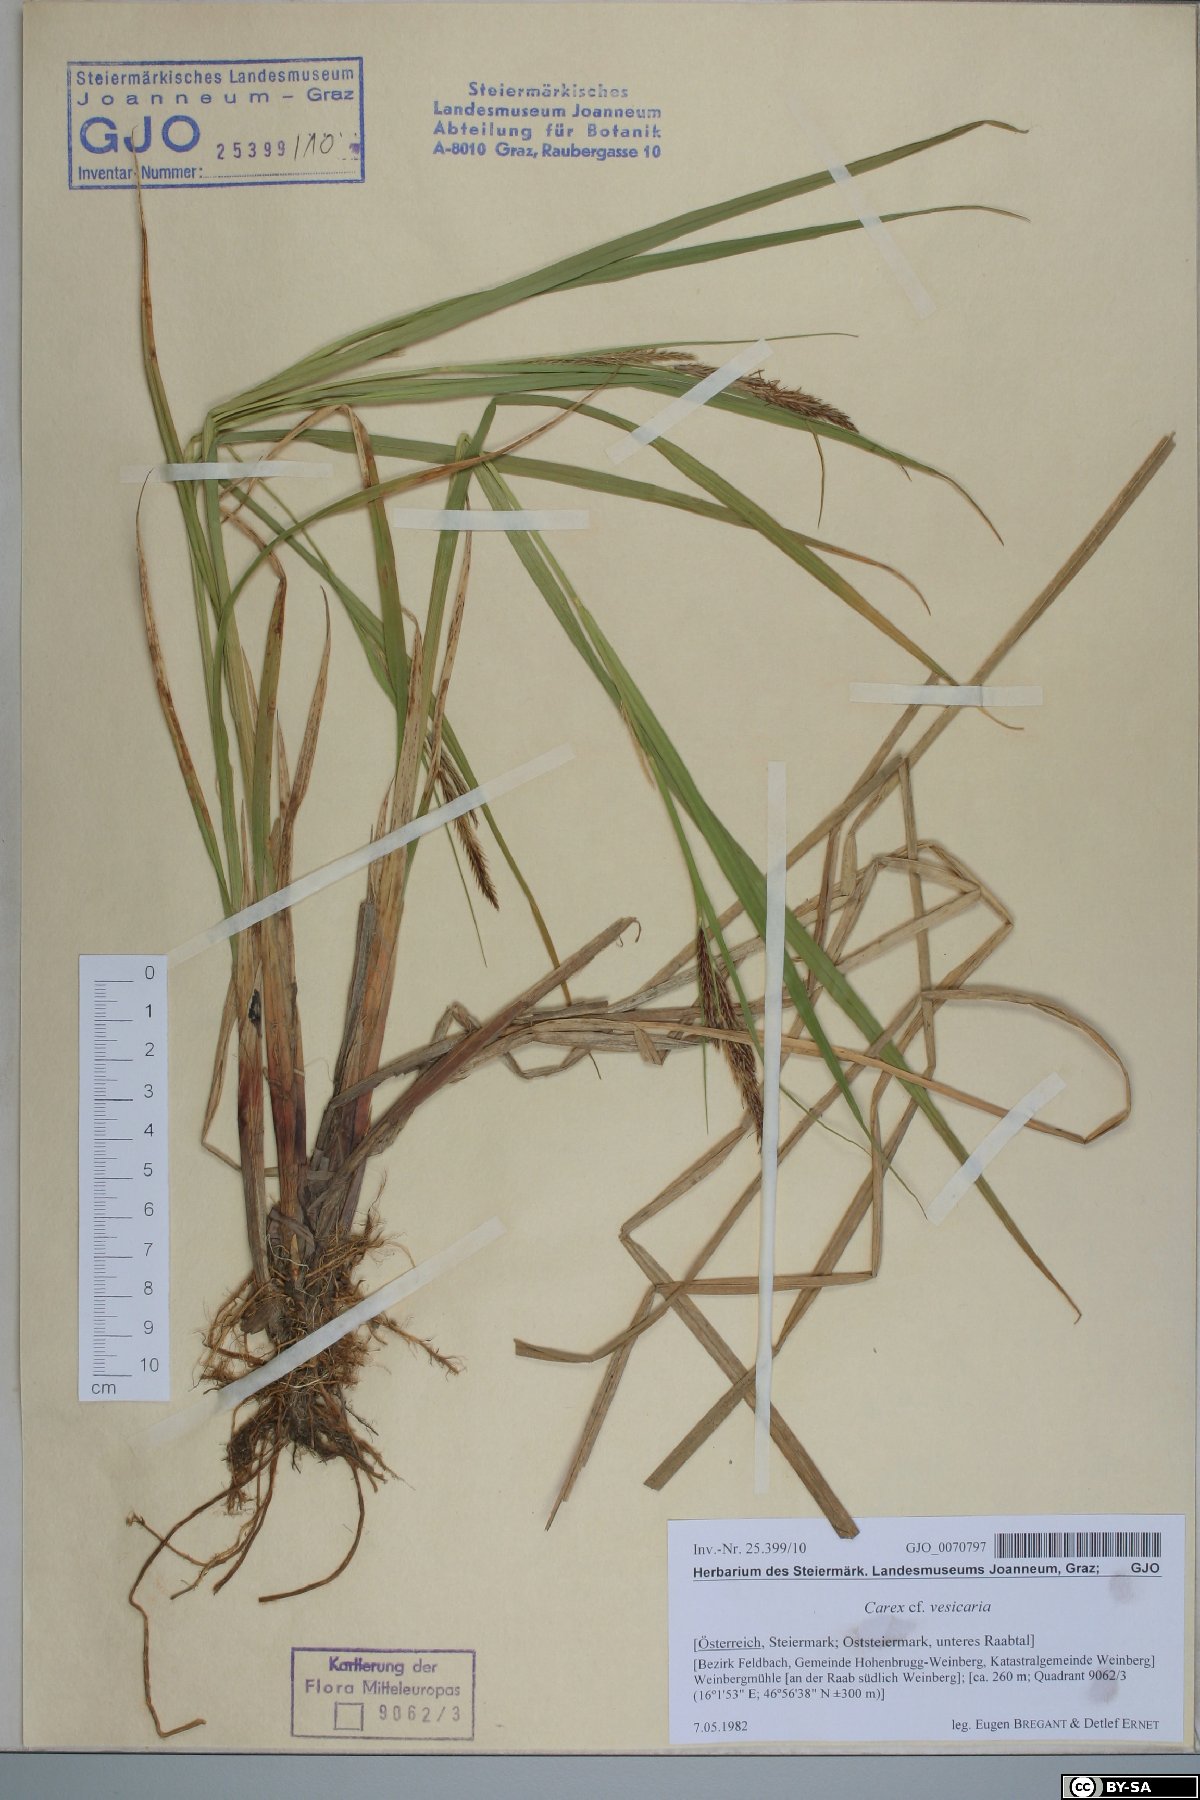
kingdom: Plantae
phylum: Tracheophyta
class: Liliopsida
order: Poales
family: Cyperaceae
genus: Carex
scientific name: Carex vesicaria
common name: Bladder-sedge
